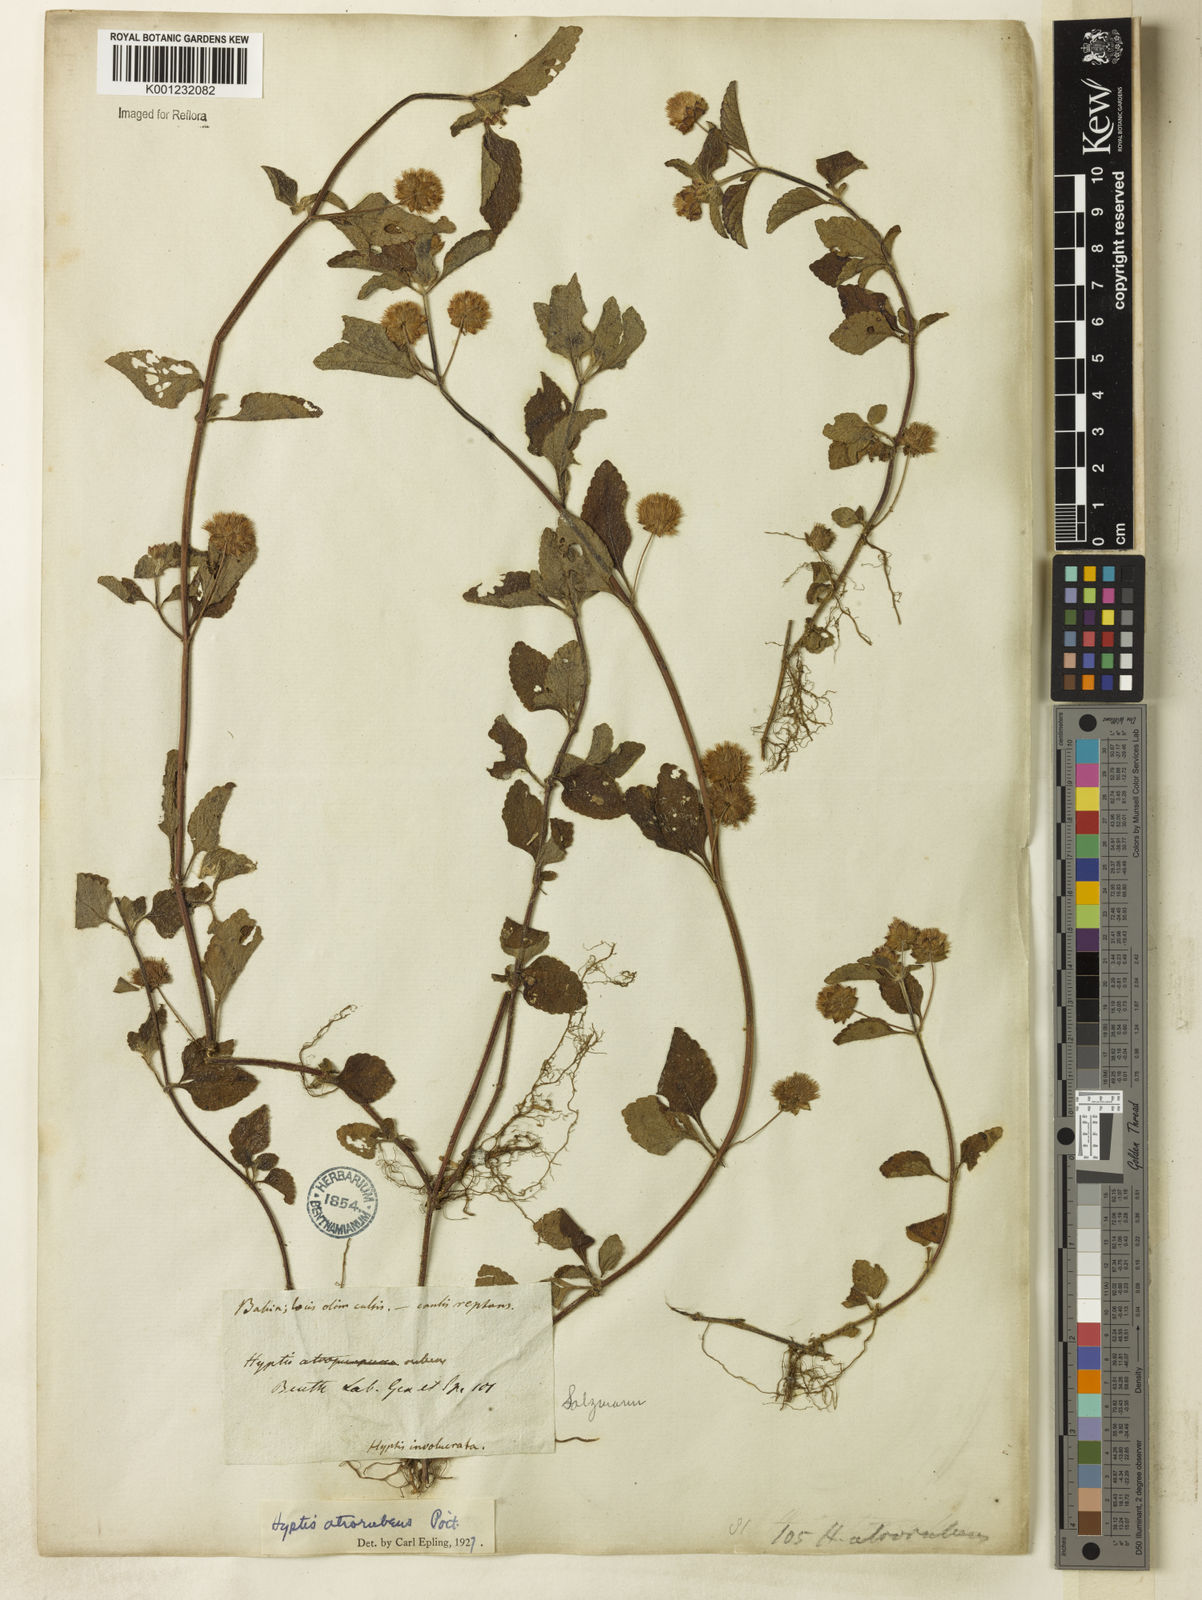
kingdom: Plantae
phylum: Tracheophyta
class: Magnoliopsida
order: Lamiales
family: Lamiaceae
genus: Hyptis
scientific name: Hyptis atrorubens
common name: Lanmant
